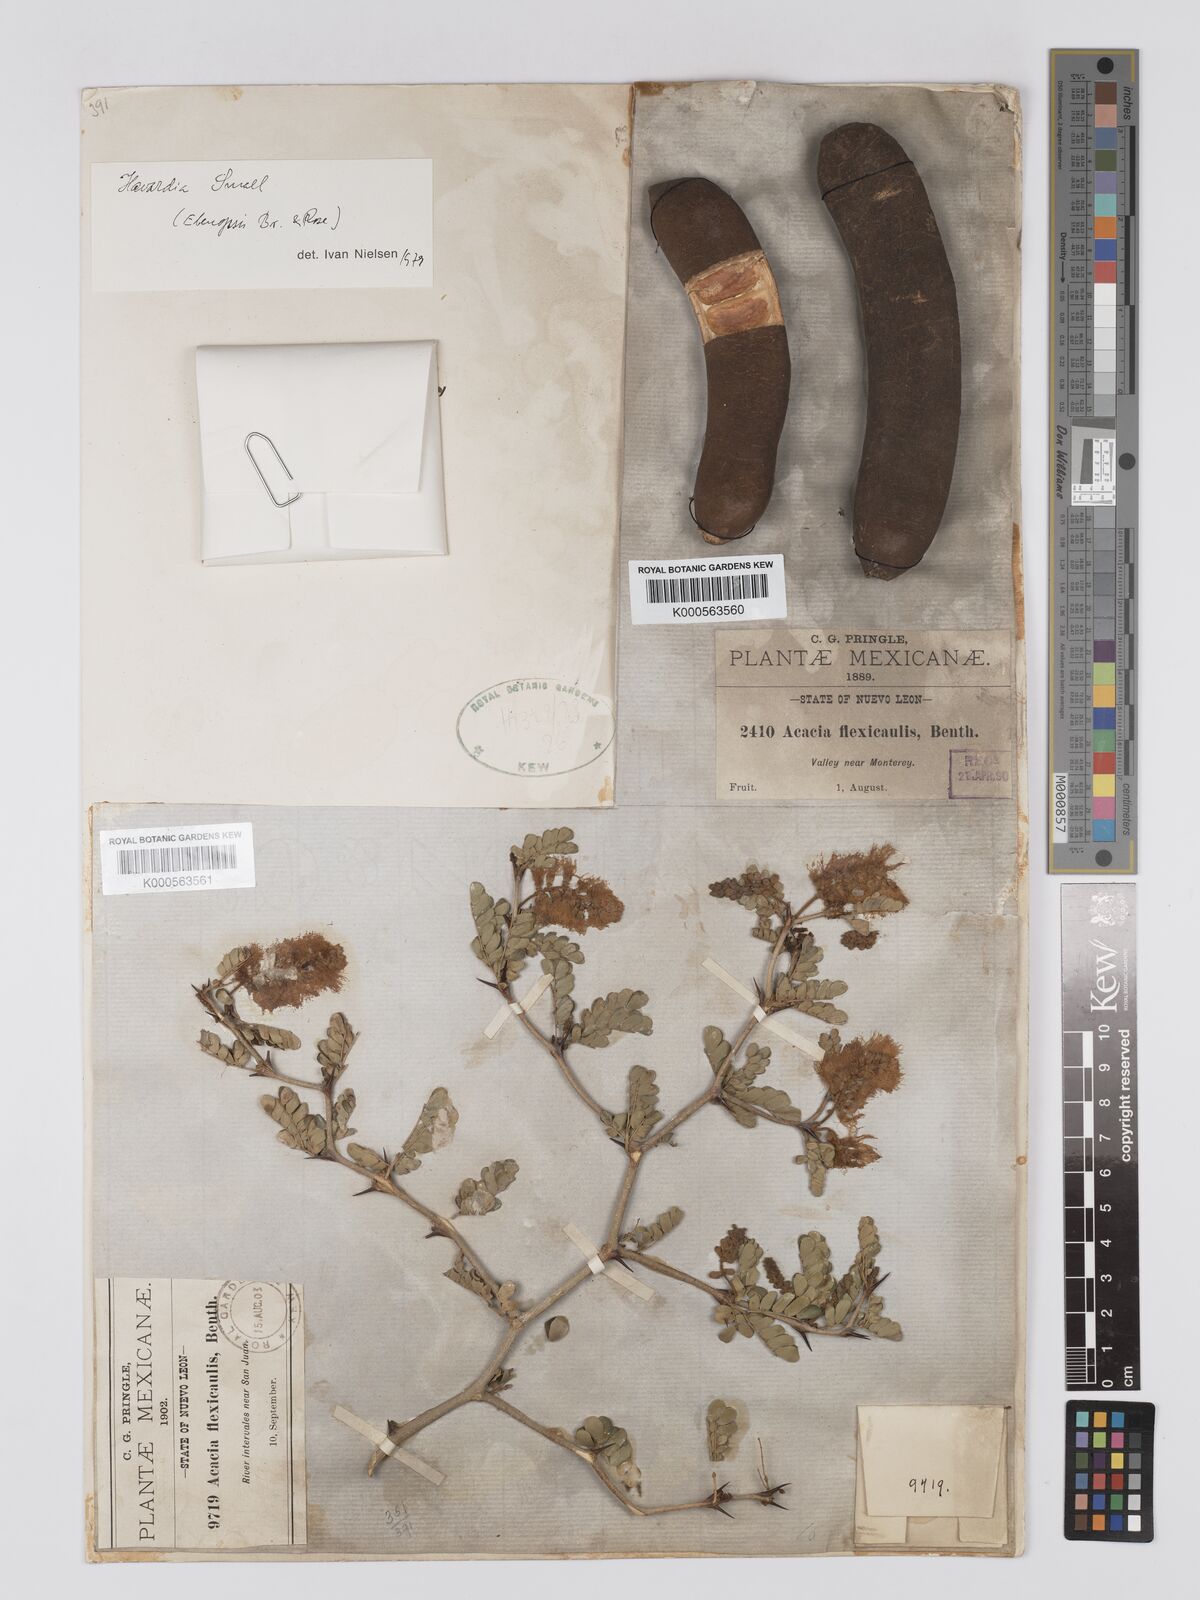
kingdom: Plantae
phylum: Tracheophyta
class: Magnoliopsida
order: Fabales
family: Fabaceae
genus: Ebenopsis
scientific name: Ebenopsis ebano
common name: Ebony blackbead
